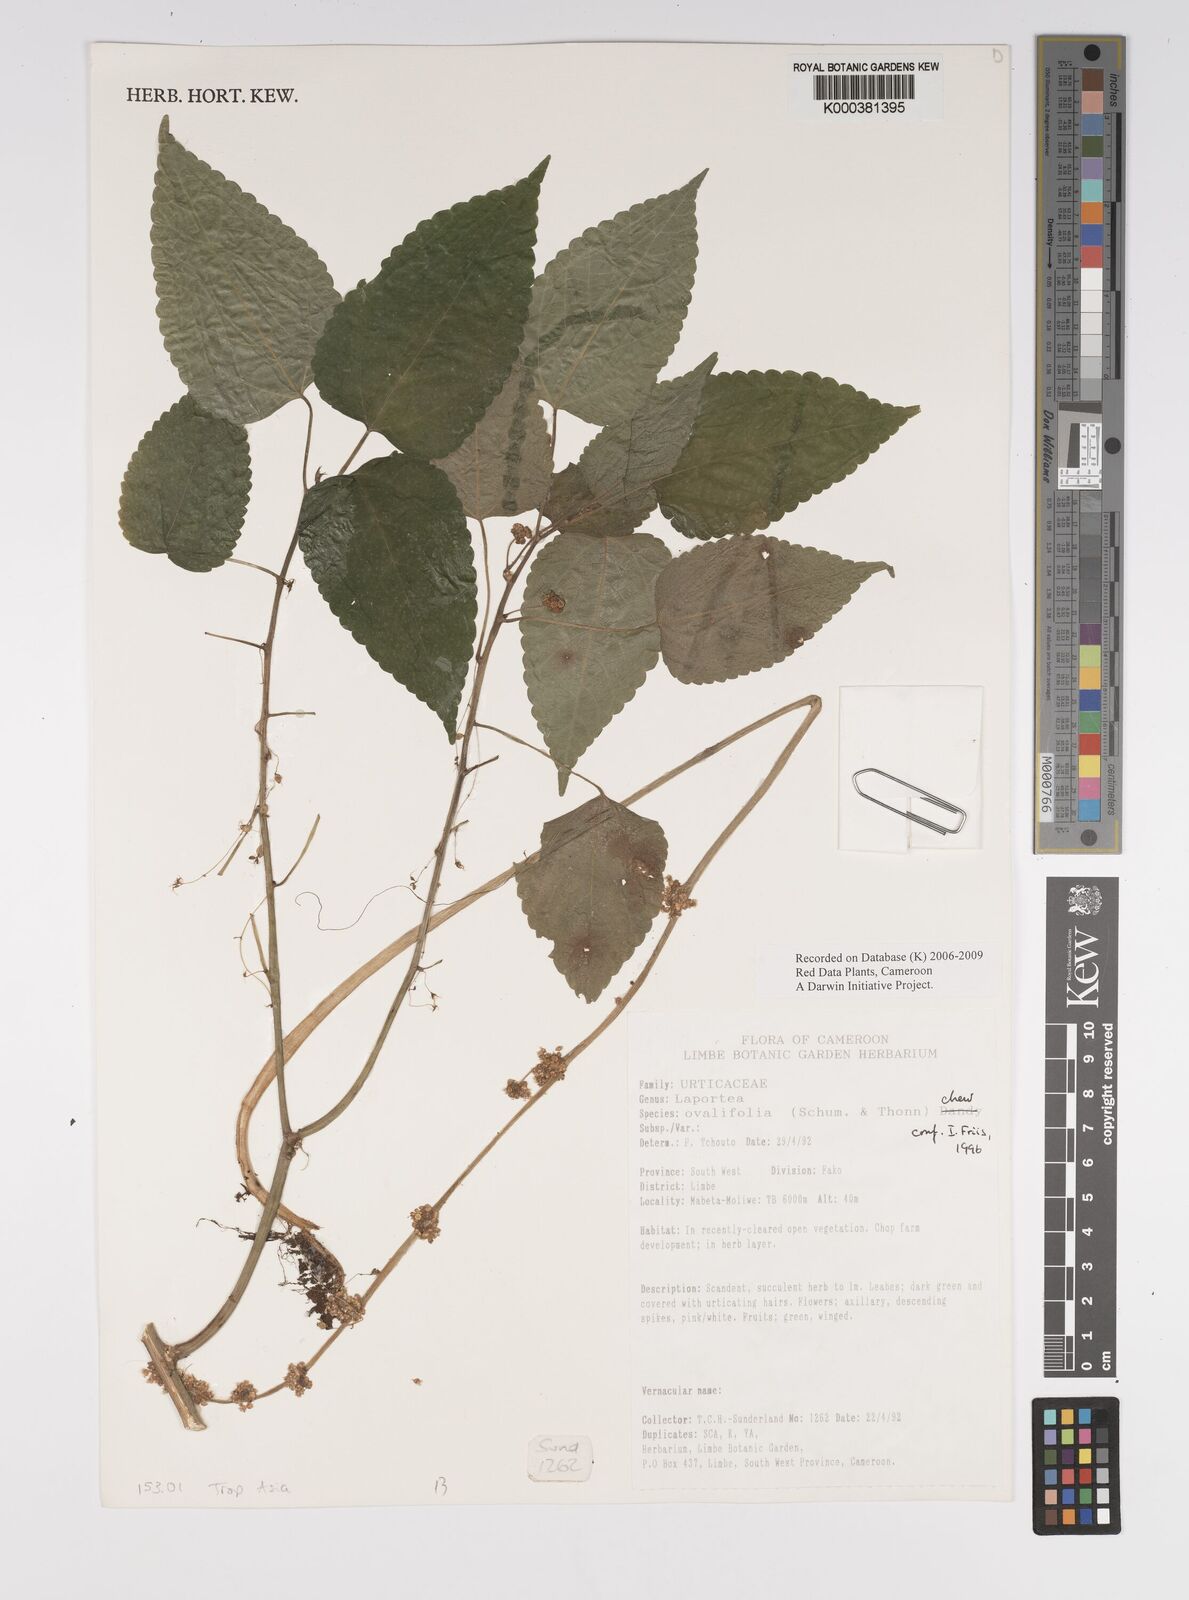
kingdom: Plantae
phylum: Tracheophyta
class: Magnoliopsida
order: Rosales
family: Urticaceae
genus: Laportea
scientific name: Laportea ovalifolia
